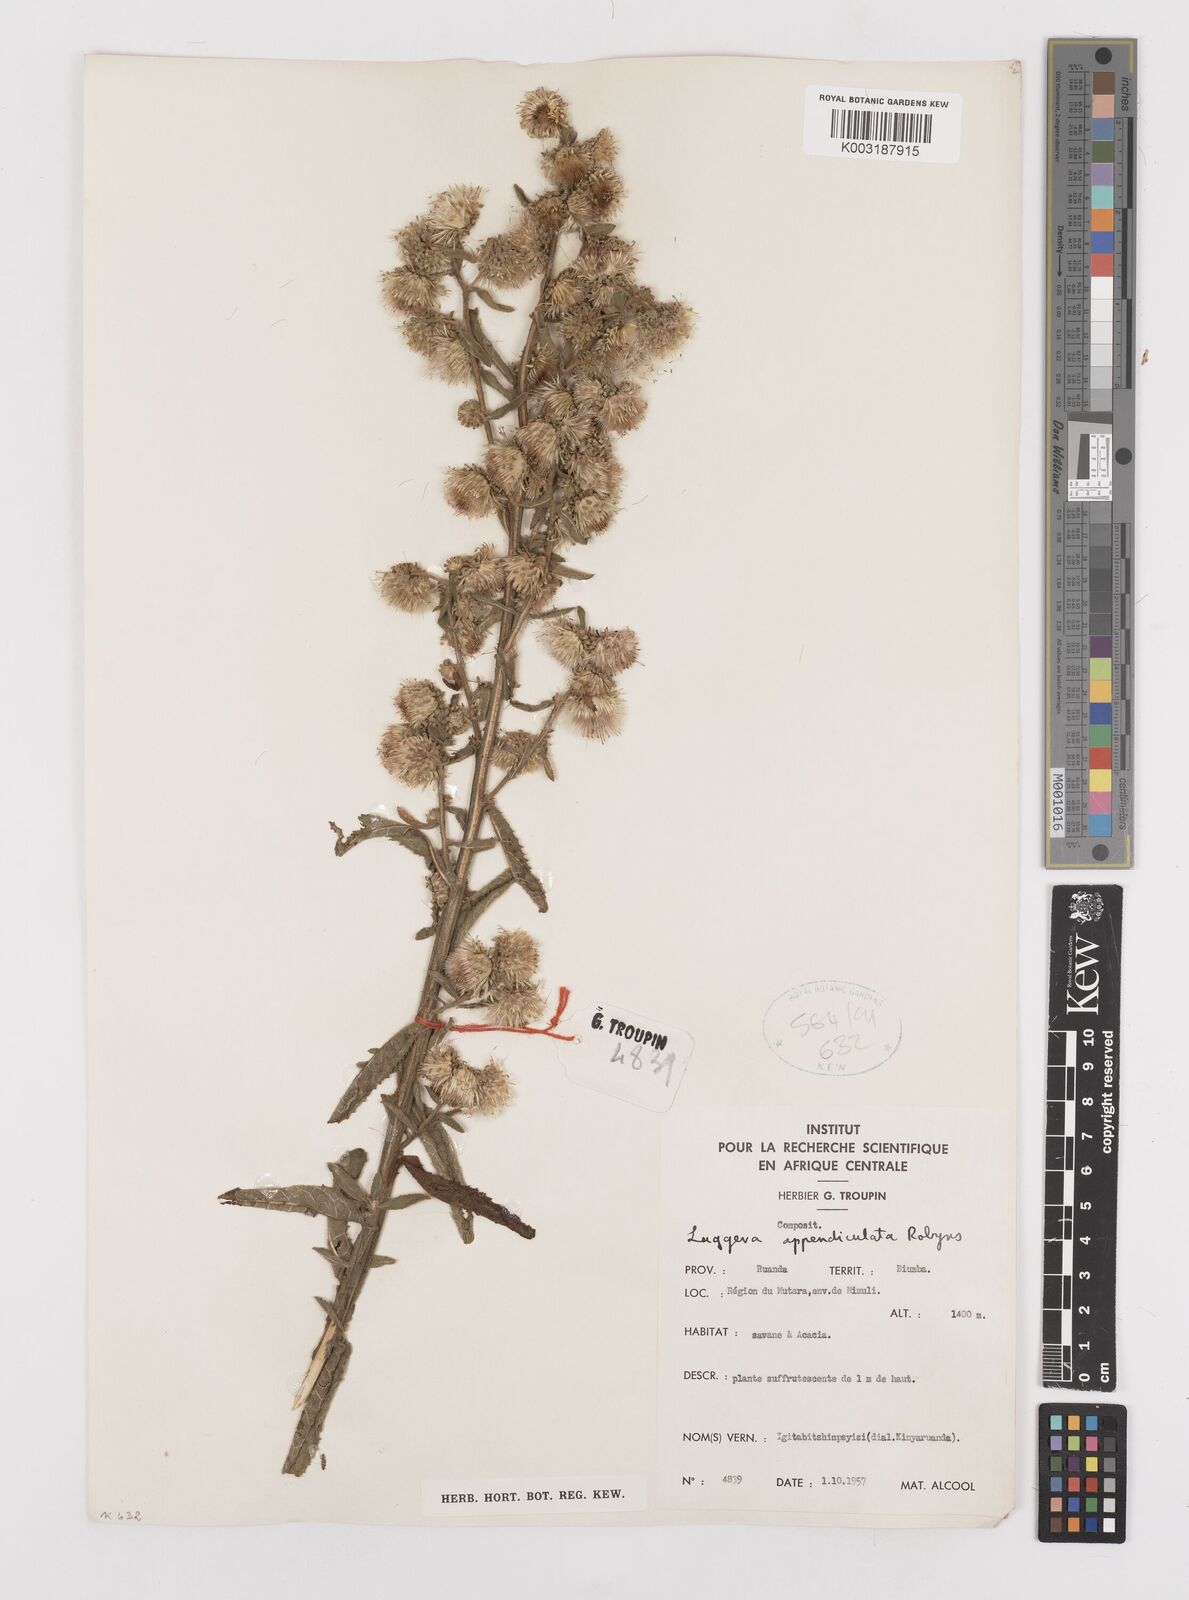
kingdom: Plantae
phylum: Tracheophyta
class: Magnoliopsida
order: Asterales
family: Asteraceae
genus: Laggera
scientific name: Laggera brevipes
